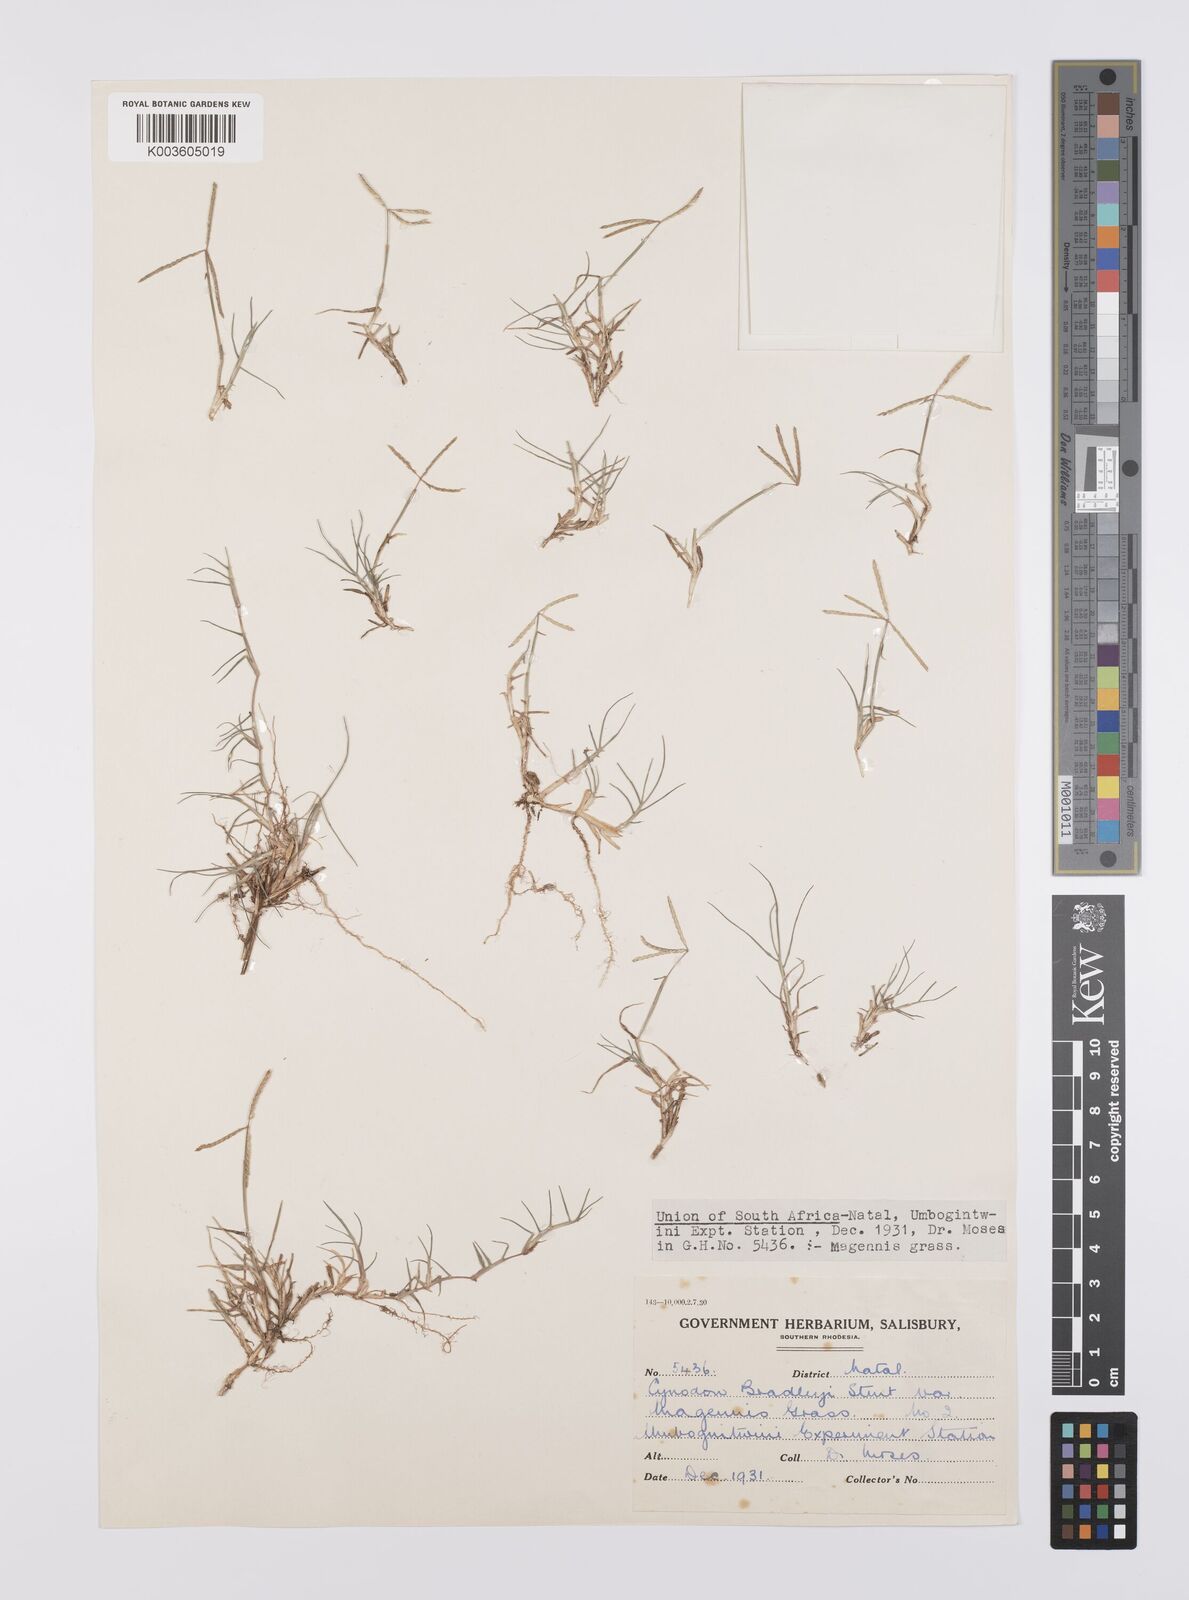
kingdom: Plantae
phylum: Tracheophyta
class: Liliopsida
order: Poales
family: Poaceae
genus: Cynodon
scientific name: Cynodon magennisii
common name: Bermudagrass
